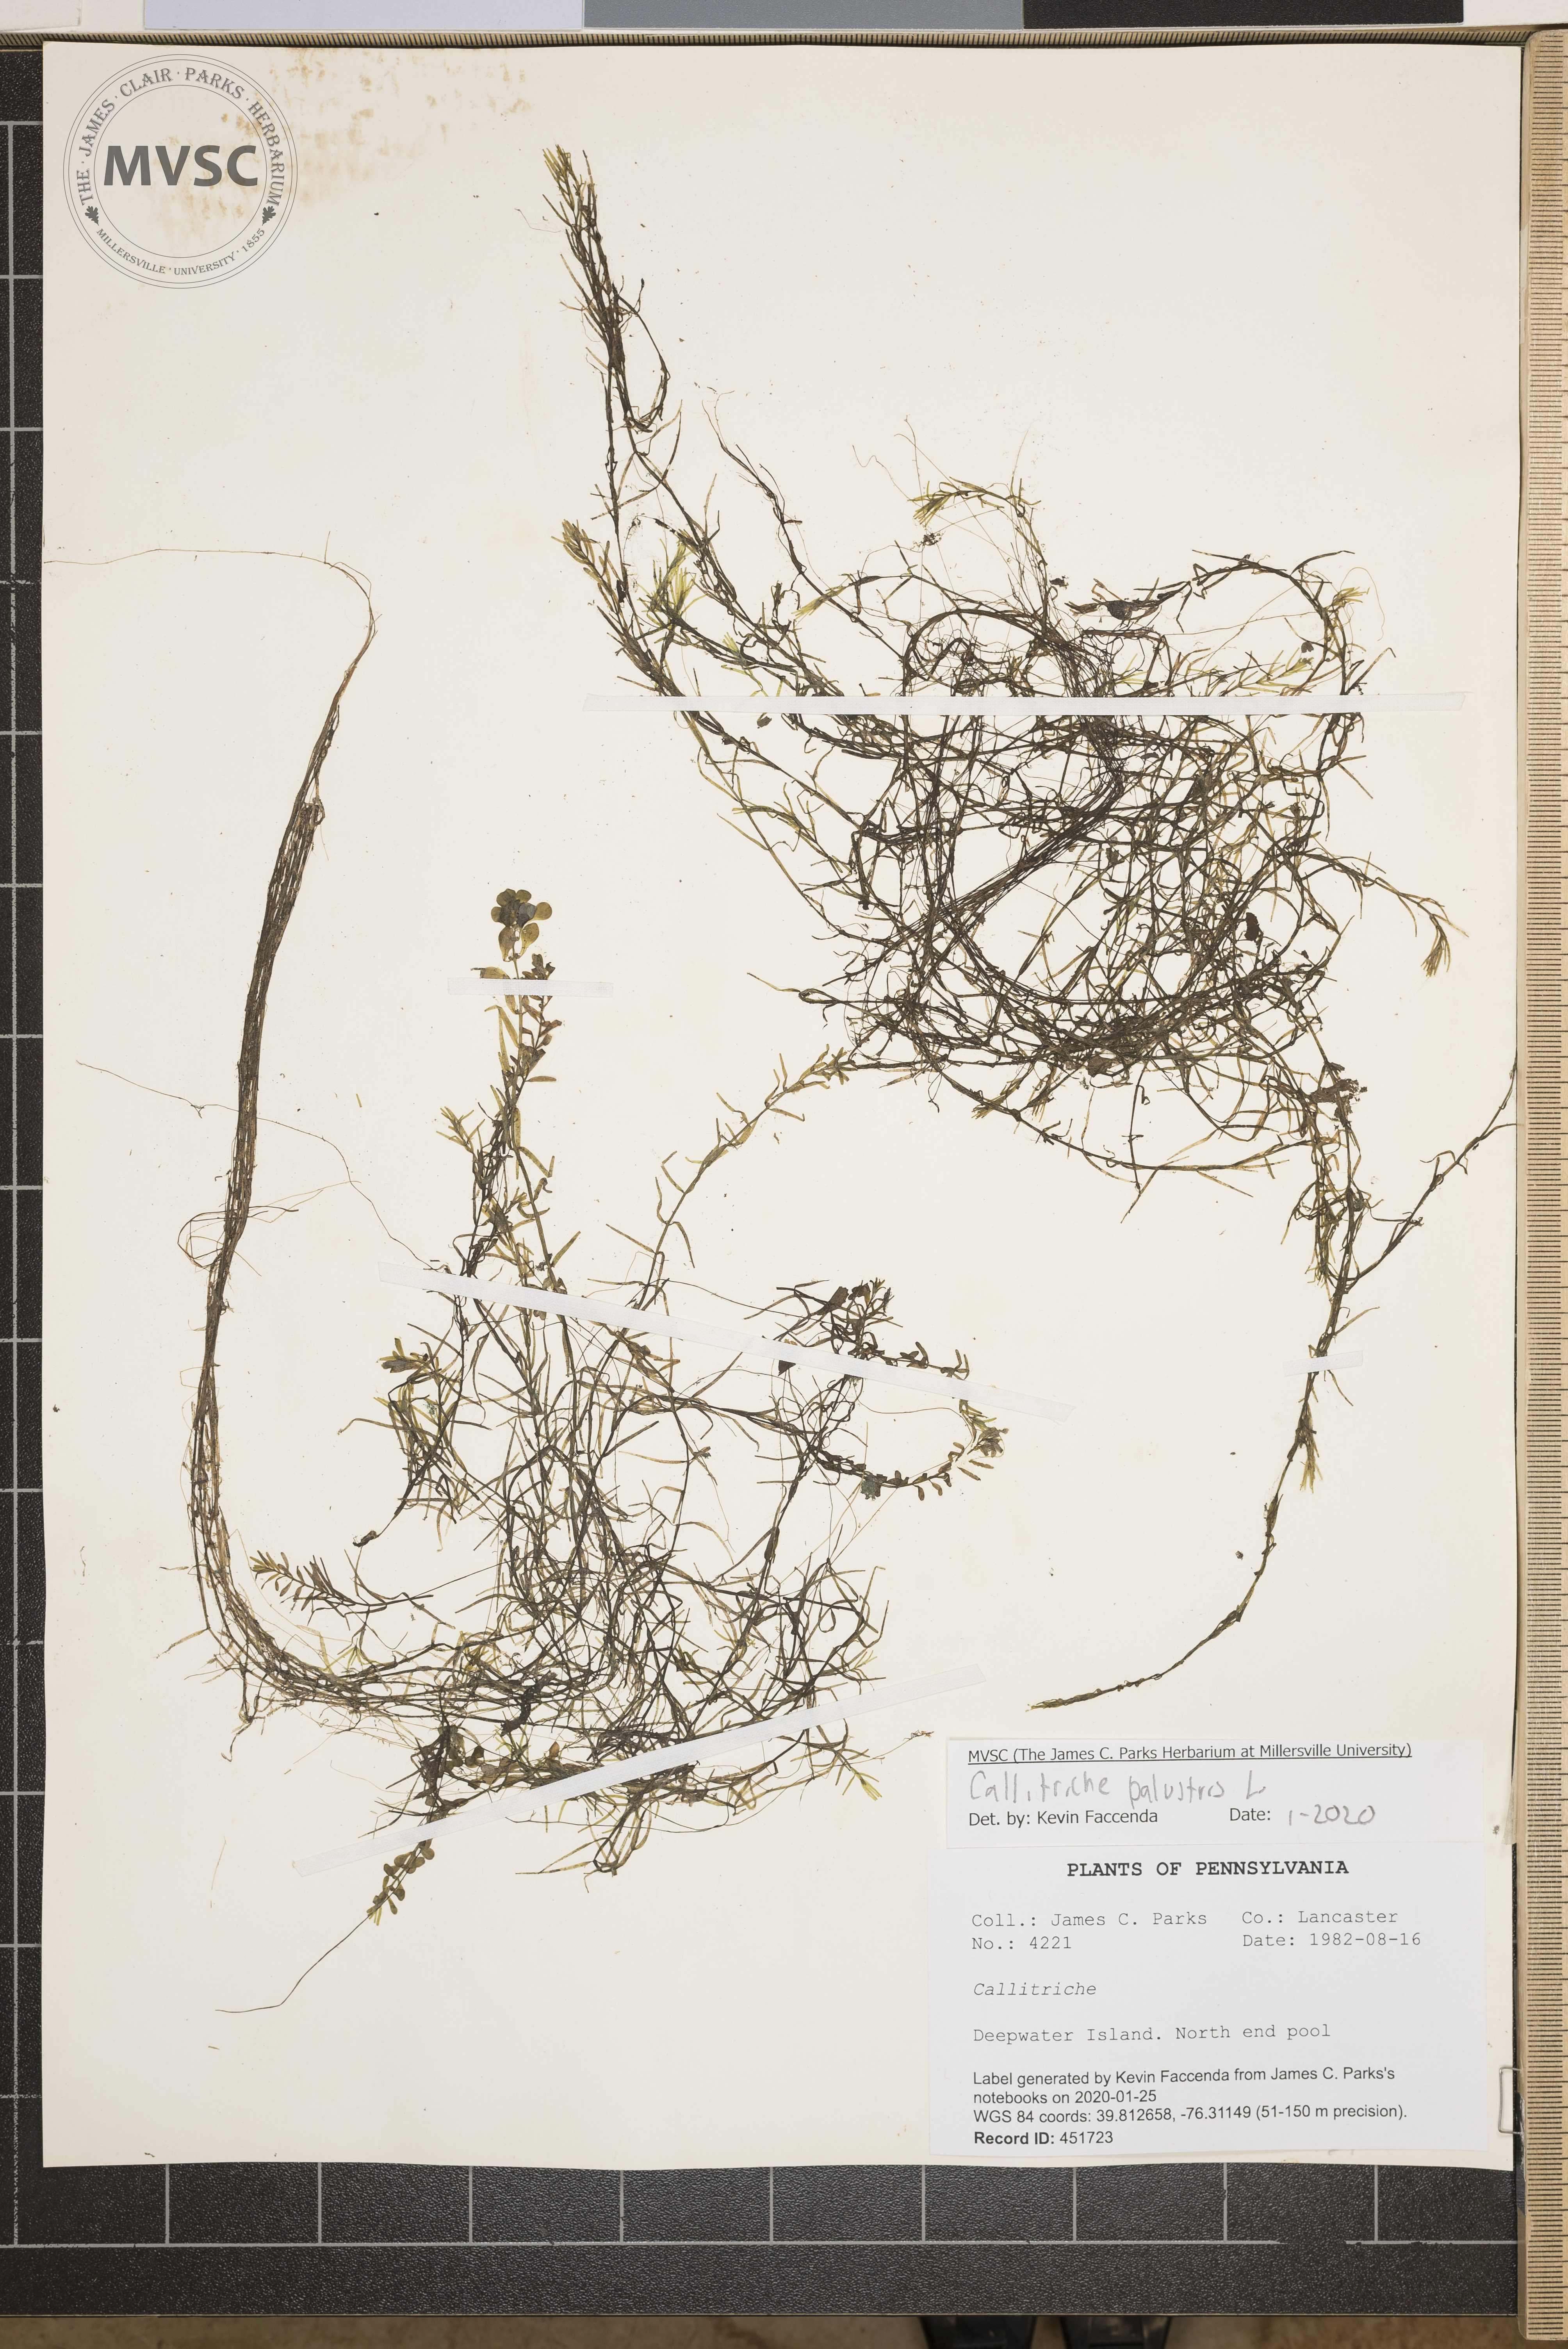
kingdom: Plantae
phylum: Tracheophyta
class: Magnoliopsida
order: Lamiales
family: Plantaginaceae
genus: Callitriche
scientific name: Callitriche palustris
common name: Spring water-starwort
